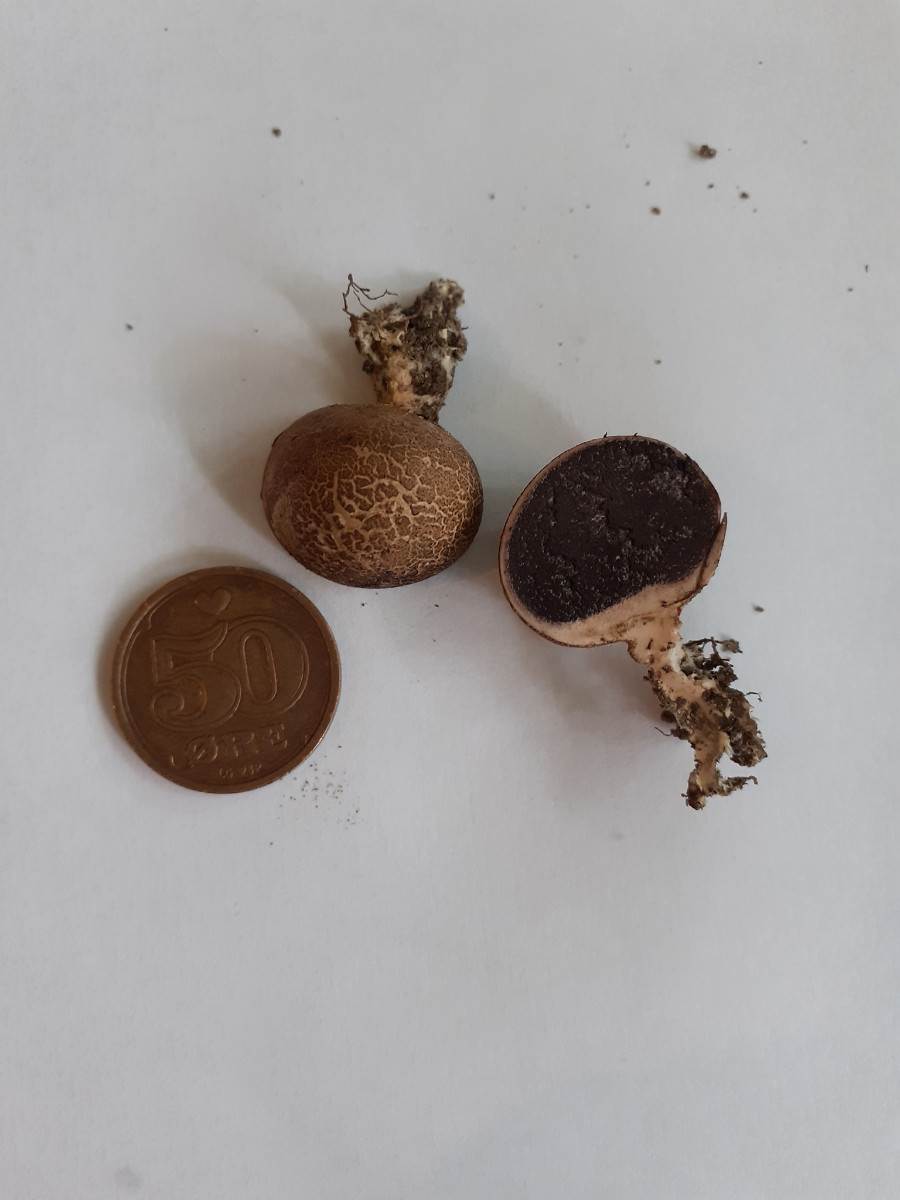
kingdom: Fungi
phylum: Basidiomycota
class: Agaricomycetes
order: Boletales
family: Sclerodermataceae
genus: Scleroderma
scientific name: Scleroderma verrucosum
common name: stilket bruskbold
